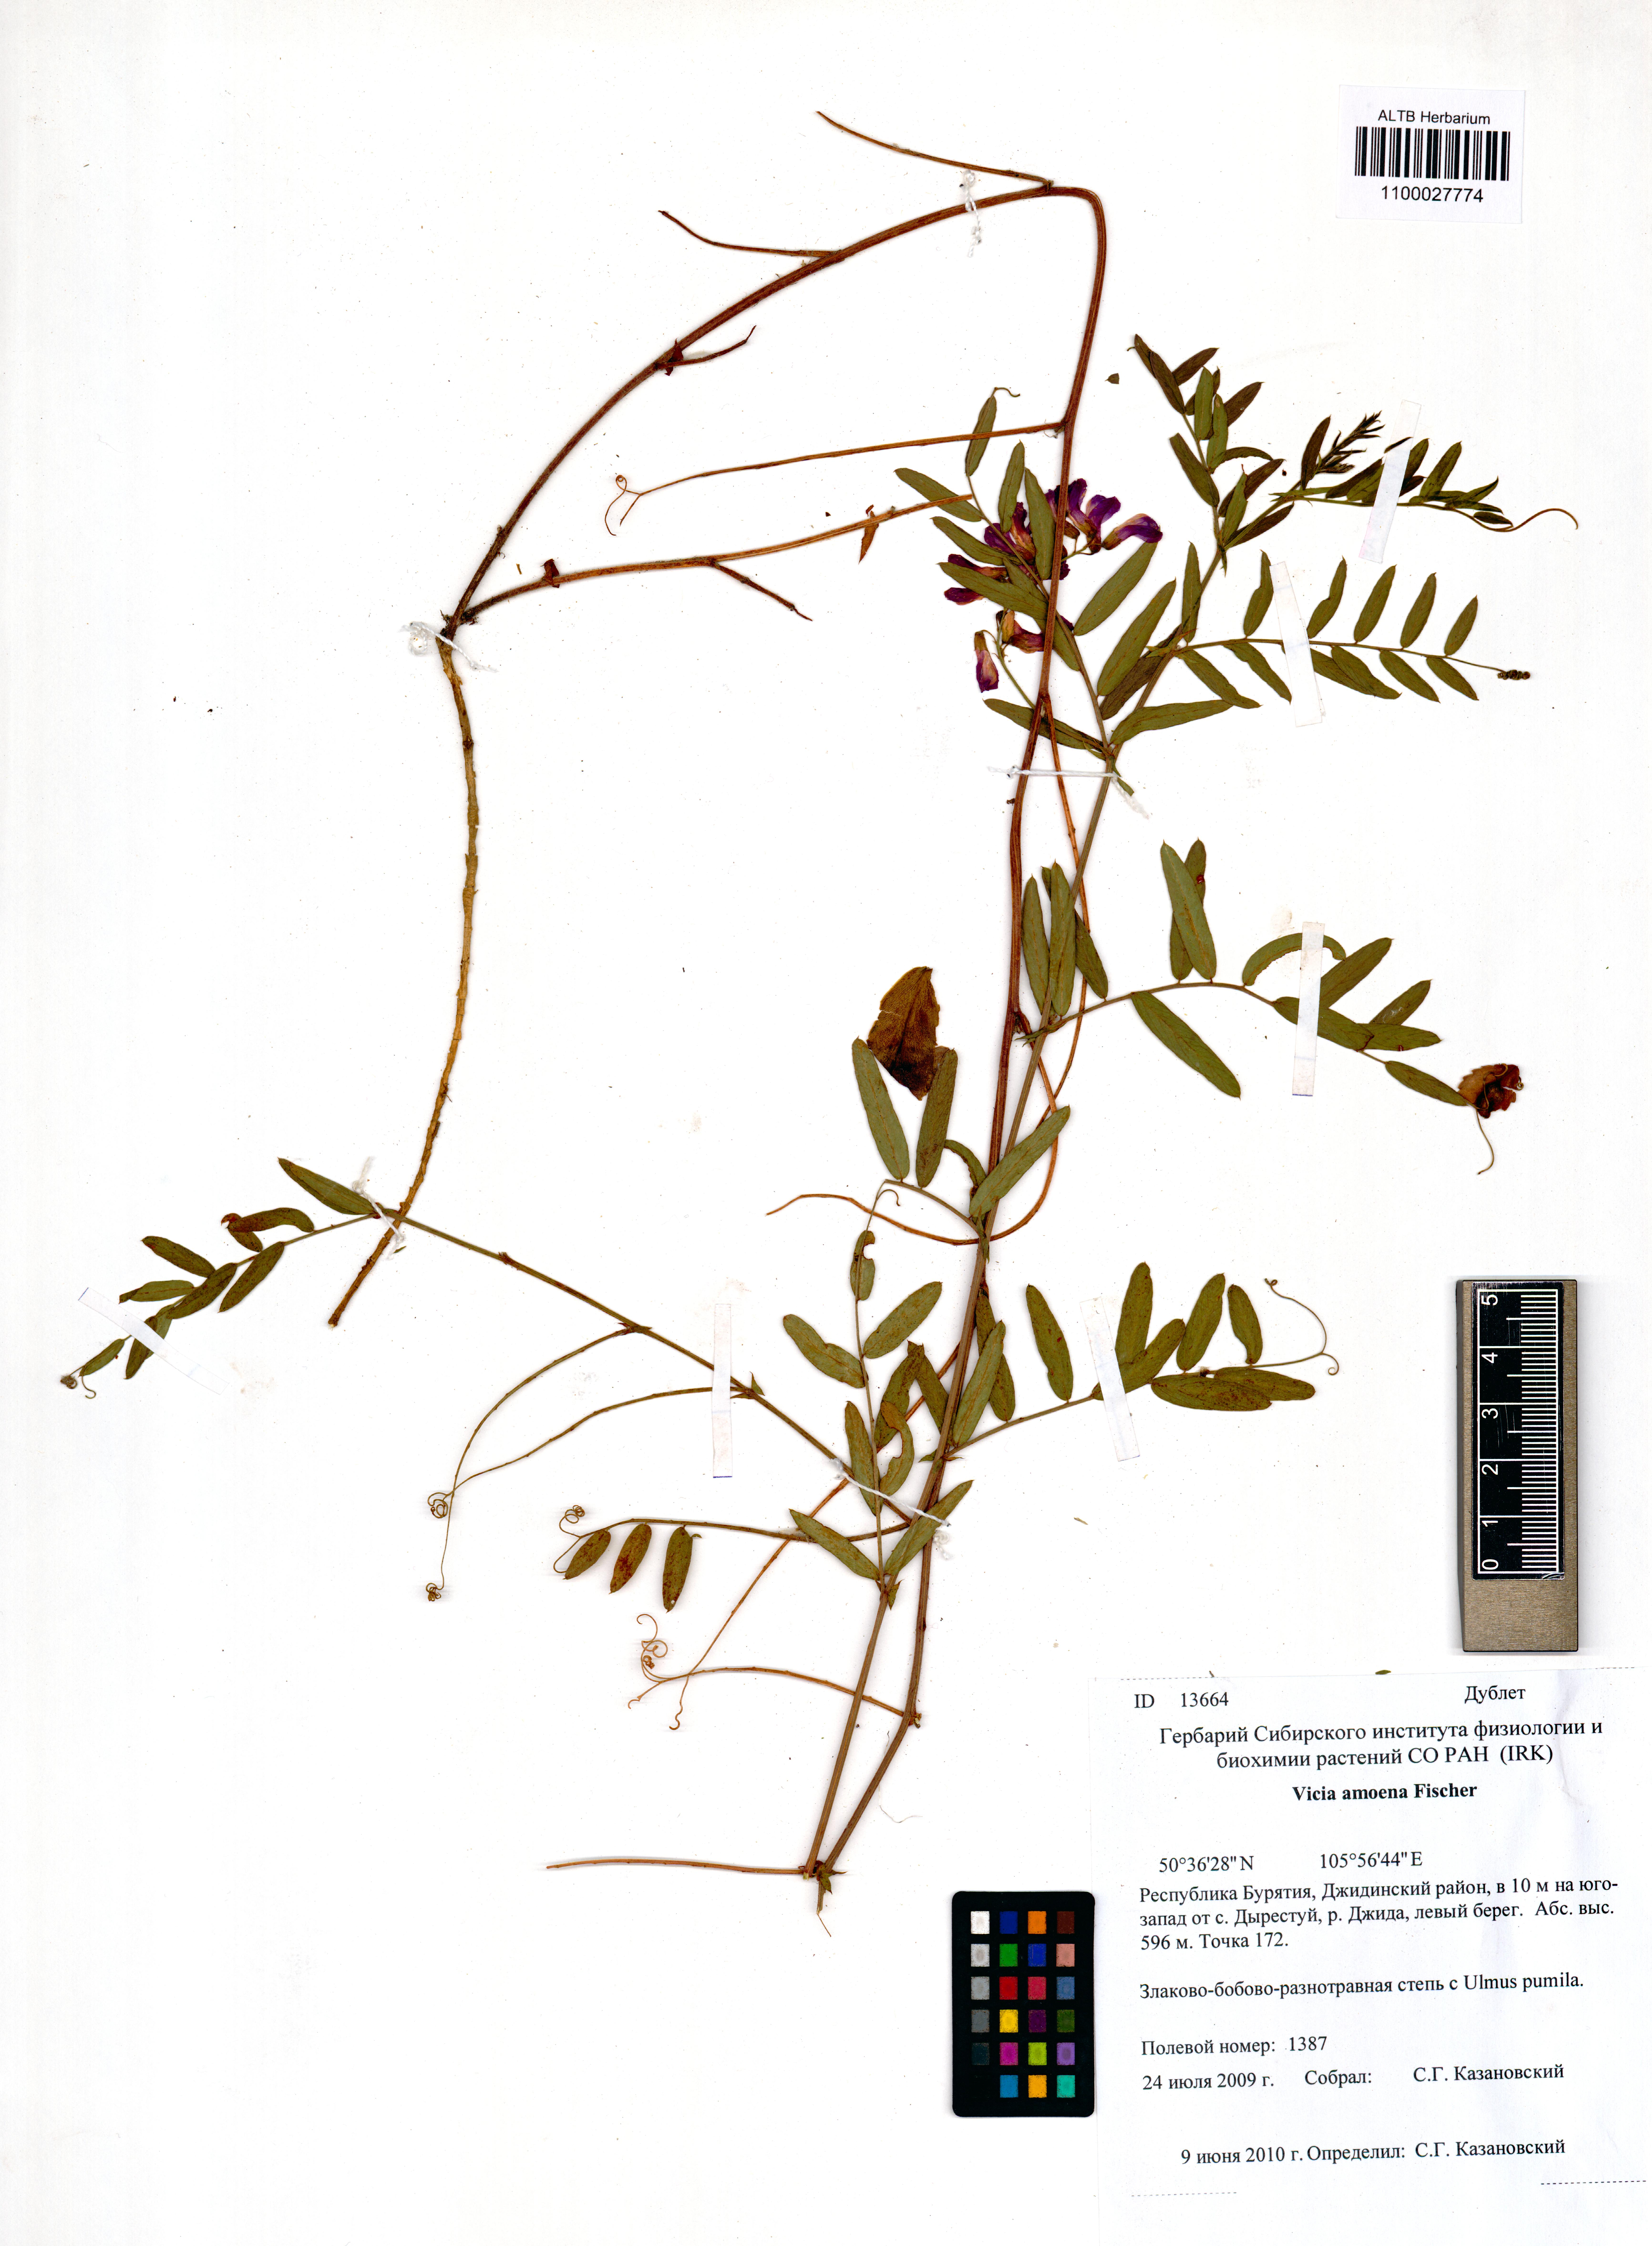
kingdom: Plantae
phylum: Tracheophyta
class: Magnoliopsida
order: Fabales
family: Fabaceae
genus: Vicia
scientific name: Vicia amoena
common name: Cheder ebs
